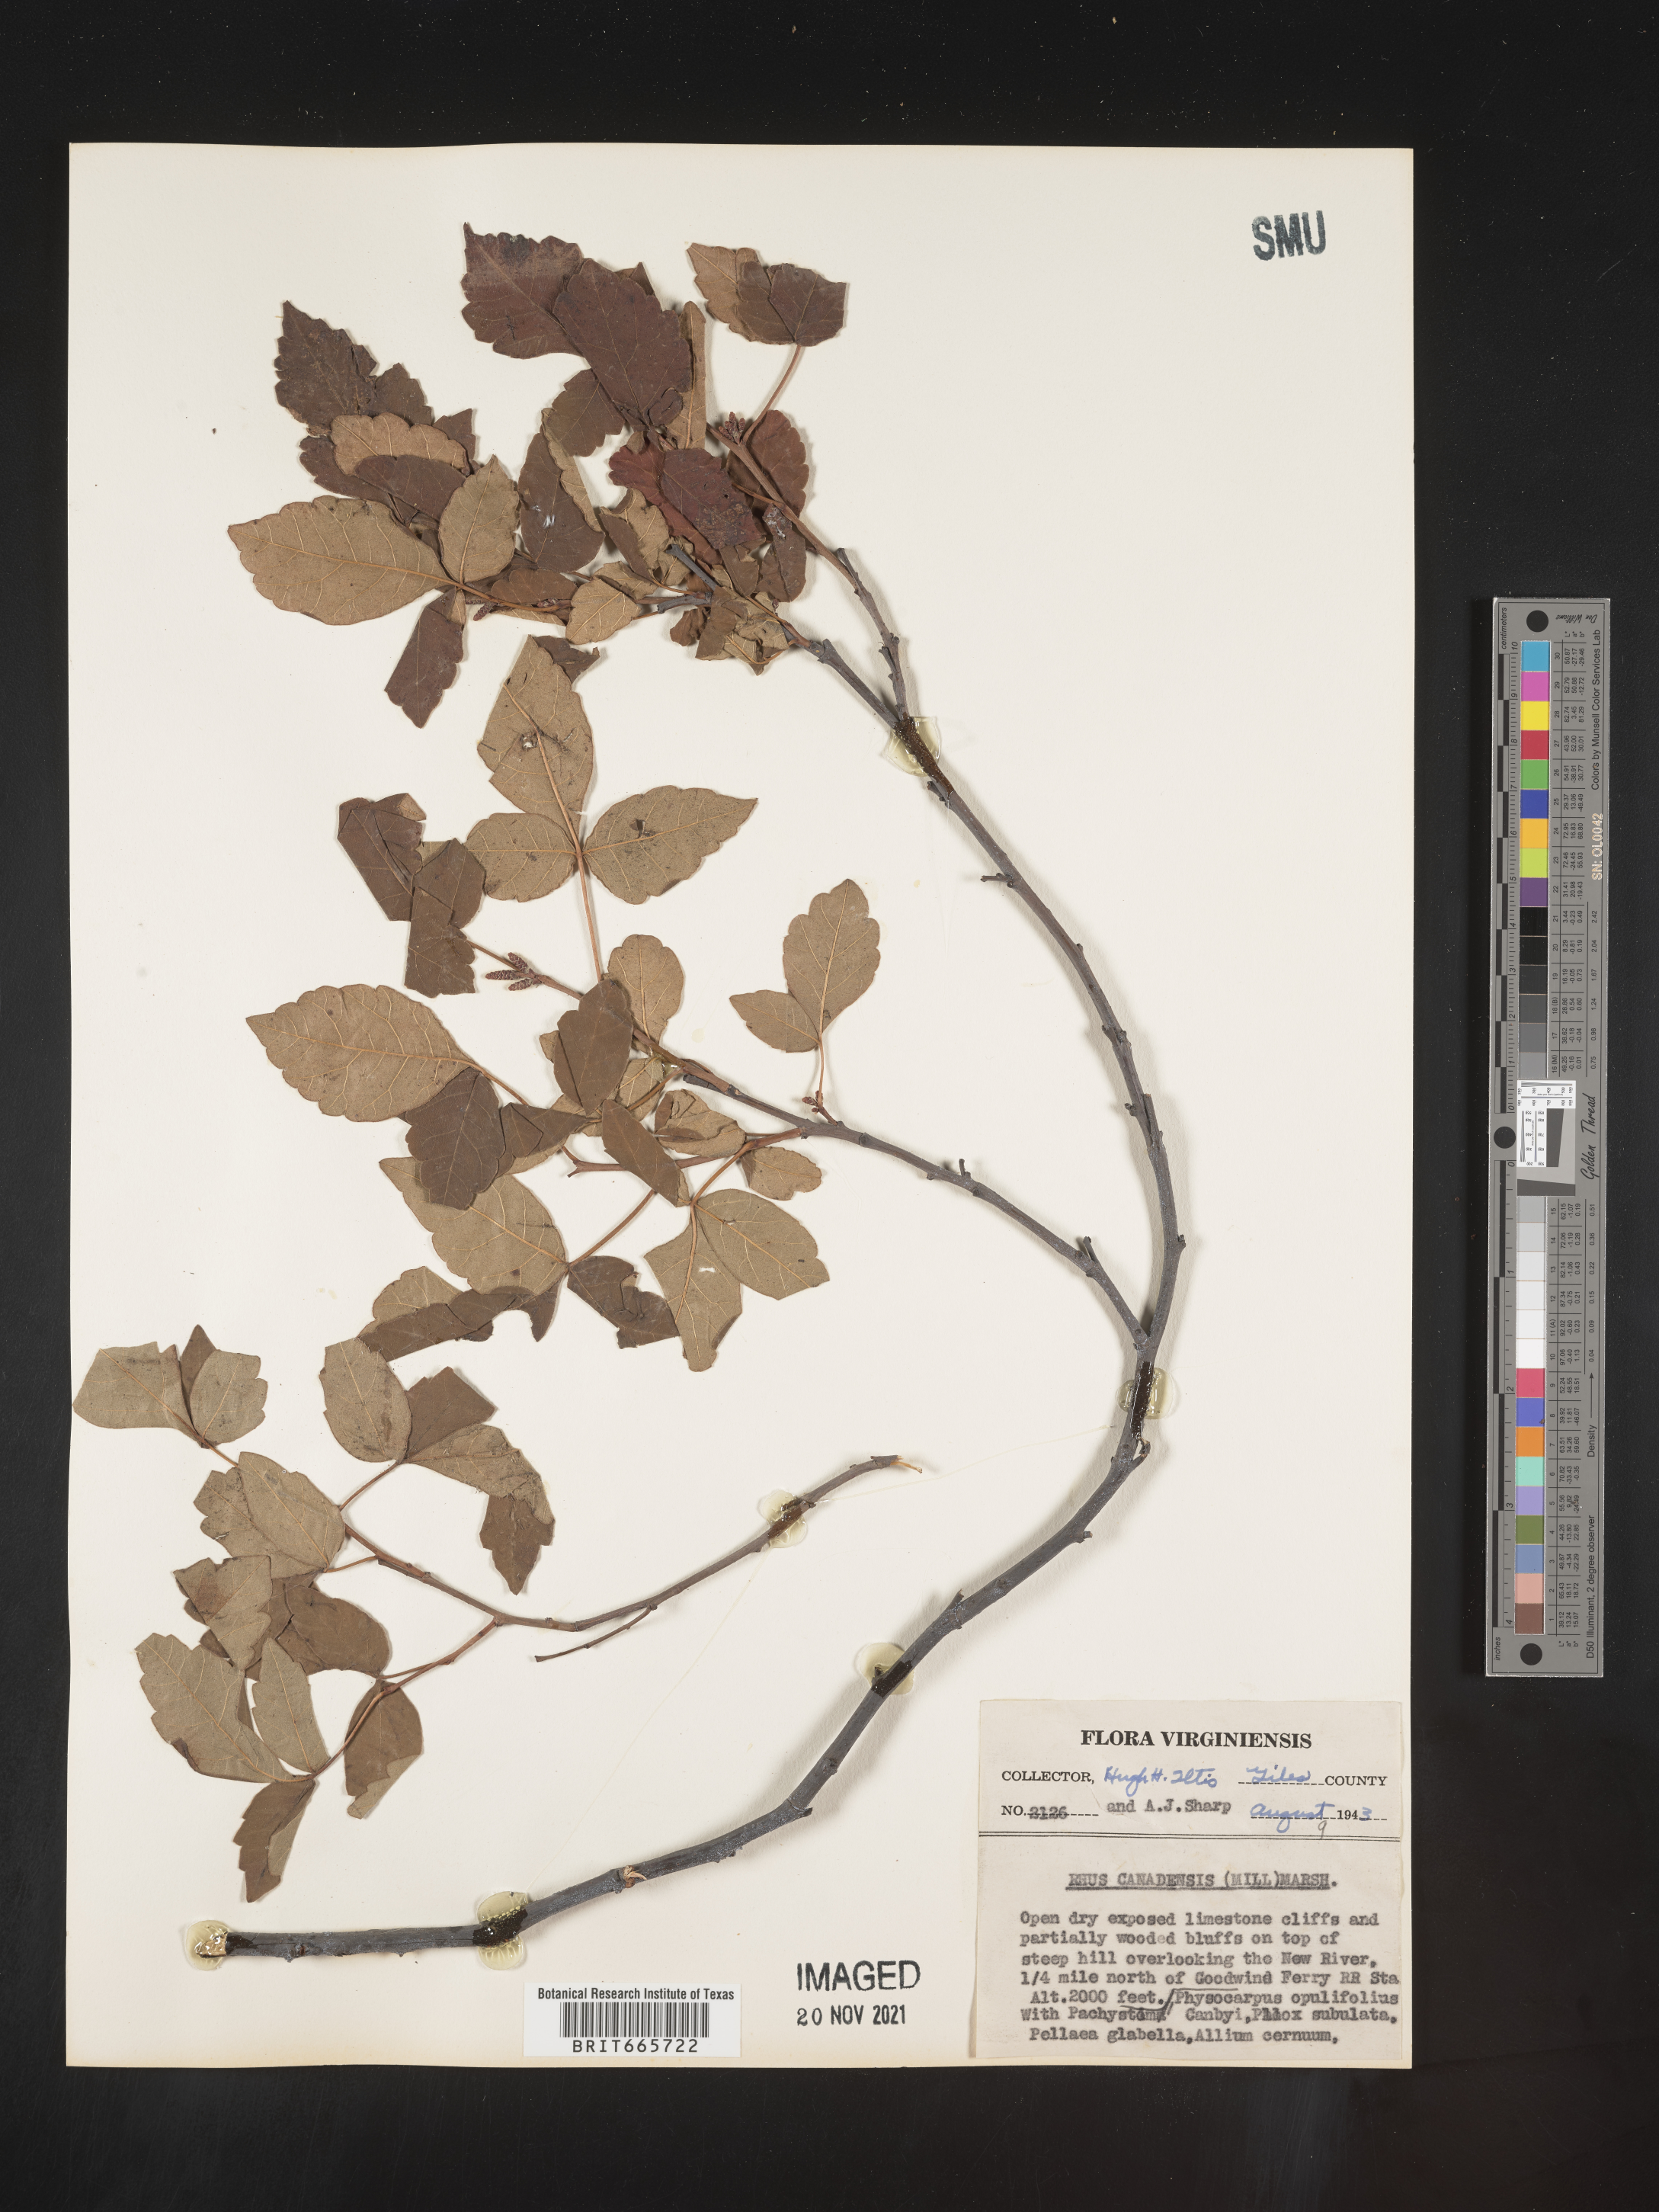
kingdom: Plantae
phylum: Tracheophyta
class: Magnoliopsida
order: Sapindales
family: Anacardiaceae
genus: Rhus
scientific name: Rhus aromatica
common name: Aromatic sumac
